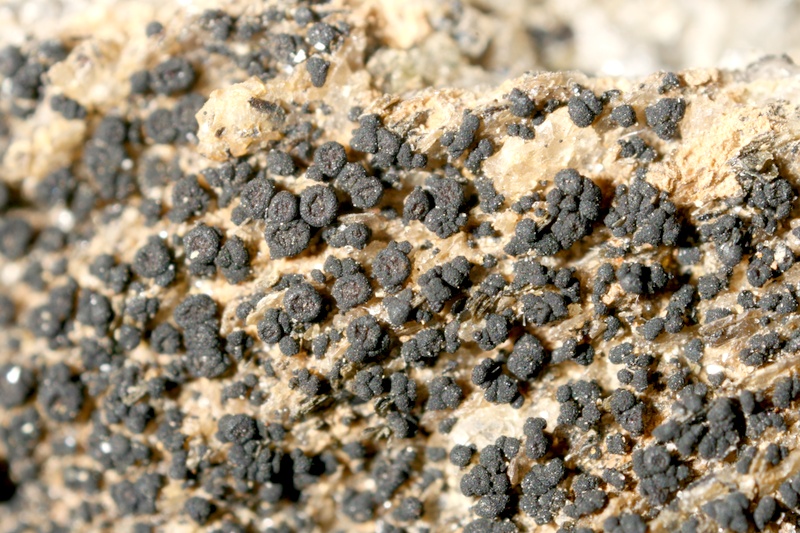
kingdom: Fungi
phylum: Ascomycota
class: Lichinomycetes
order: Lichinales
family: Lichinaceae
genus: Phloeopeccania
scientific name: Phloeopeccania
